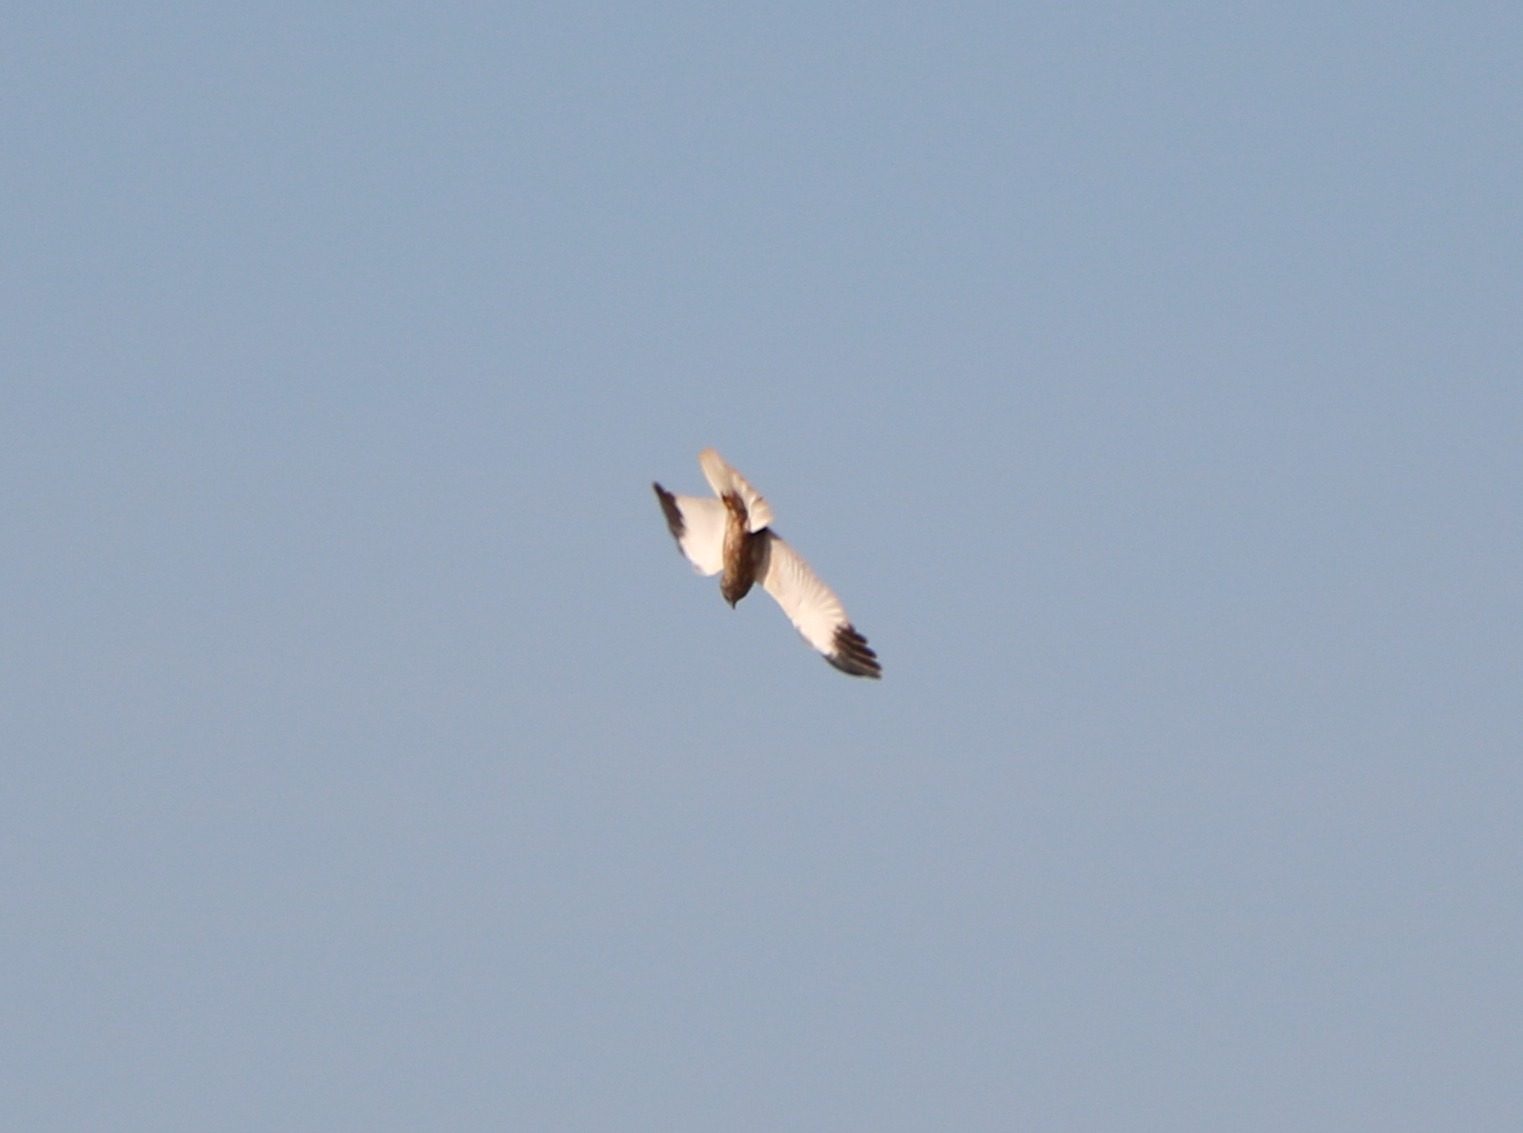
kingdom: Animalia
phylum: Chordata
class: Aves
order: Accipitriformes
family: Accipitridae
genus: Circus
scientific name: Circus aeruginosus
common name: Rørhøg
